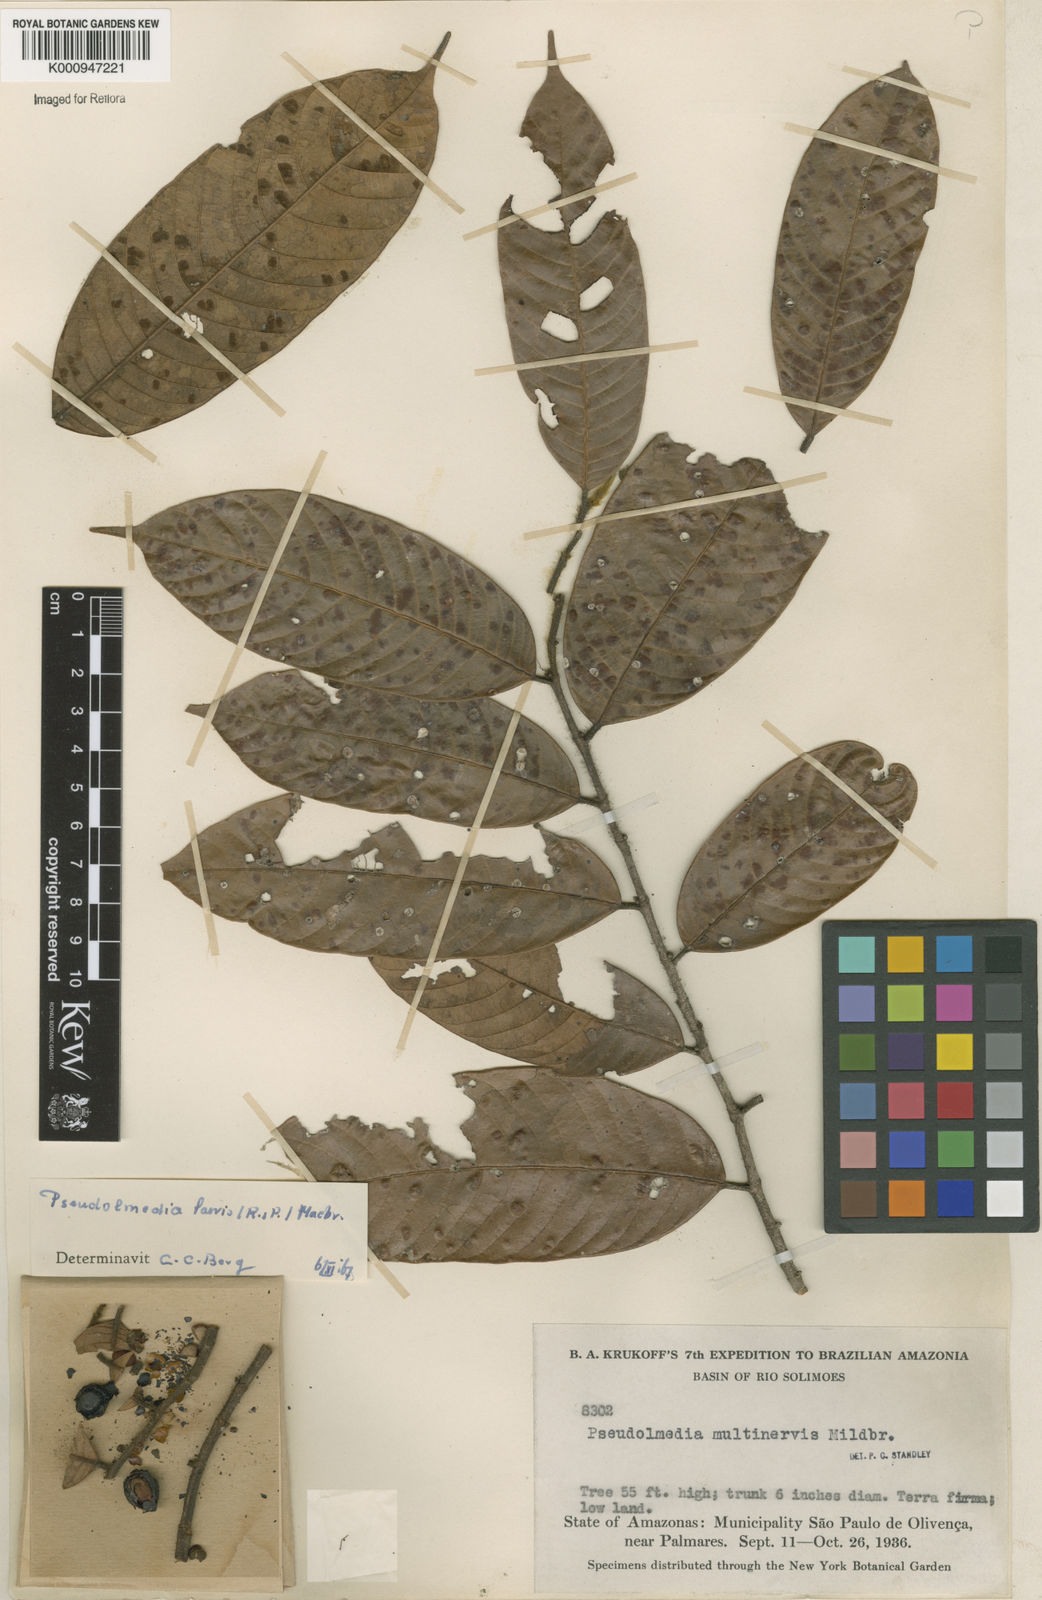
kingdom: Plantae
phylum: Tracheophyta
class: Magnoliopsida
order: Rosales
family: Moraceae
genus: Pseudolmedia
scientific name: Pseudolmedia laevis
